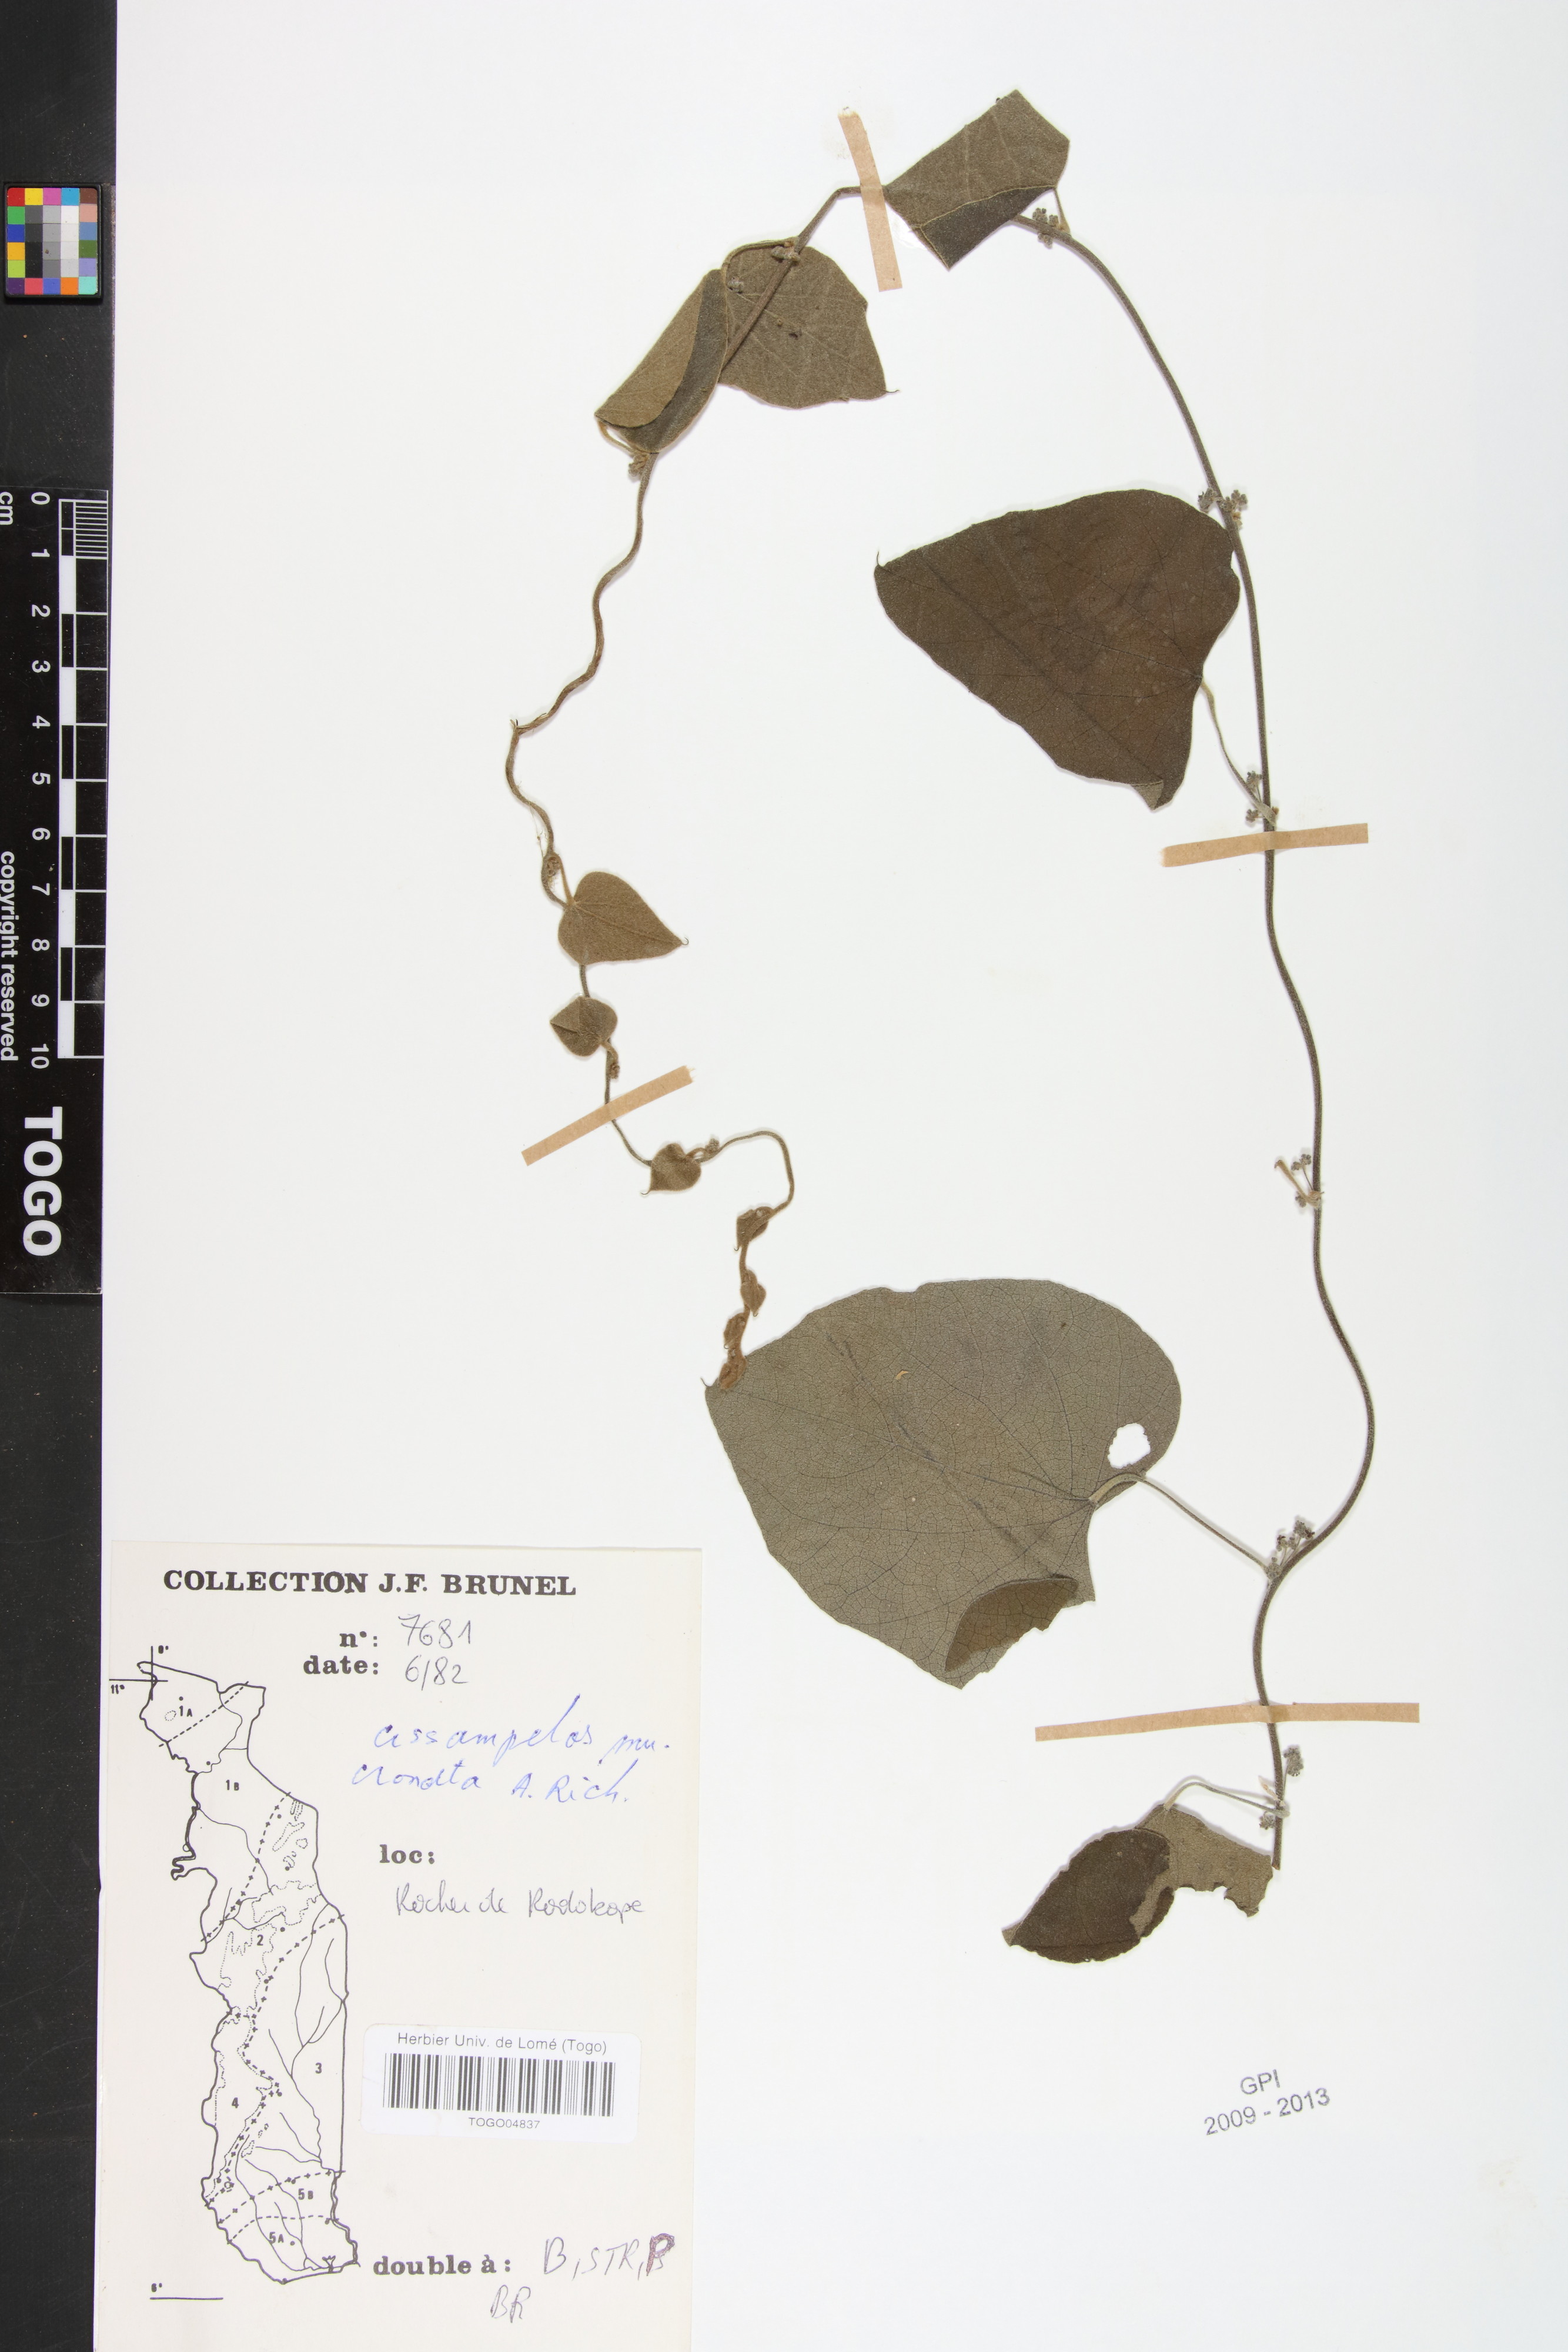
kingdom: Plantae
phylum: Tracheophyta
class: Magnoliopsida
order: Ranunculales
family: Menispermaceae
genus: Cissampelos
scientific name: Cissampelos mucronata
